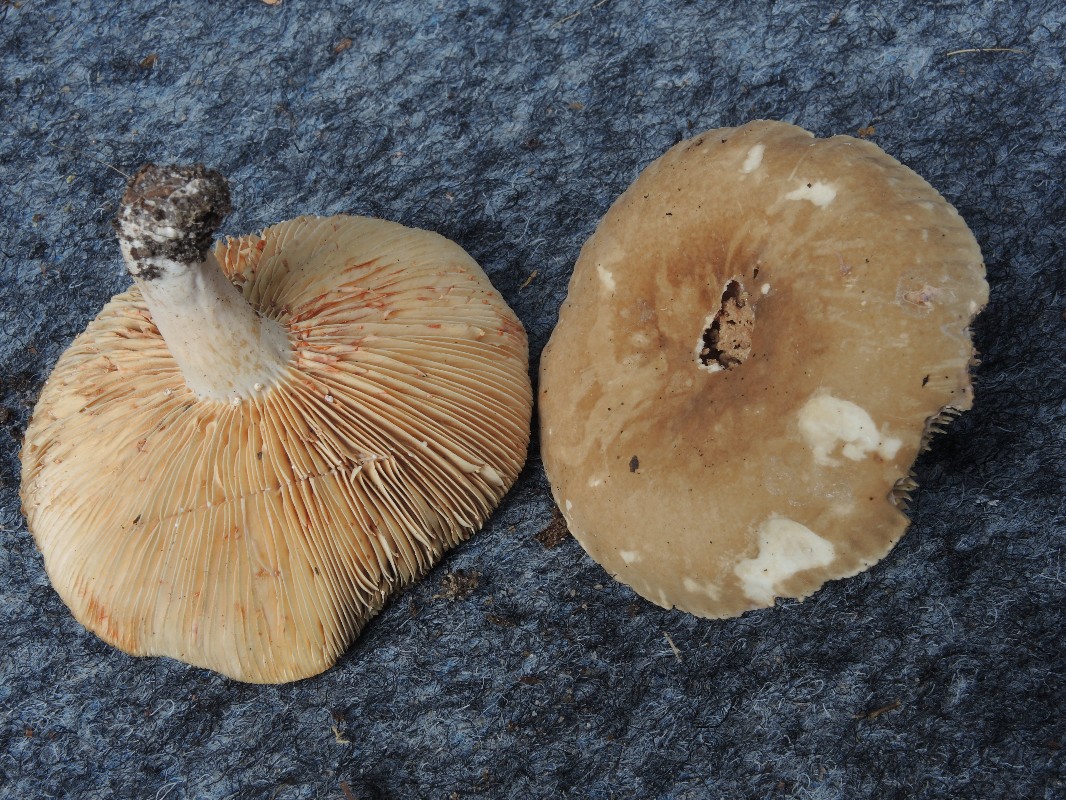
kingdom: Fungi
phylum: Basidiomycota
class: Agaricomycetes
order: Russulales
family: Russulaceae
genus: Lactarius
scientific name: Lactarius pterosporus
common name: vingesporet mælkehat
